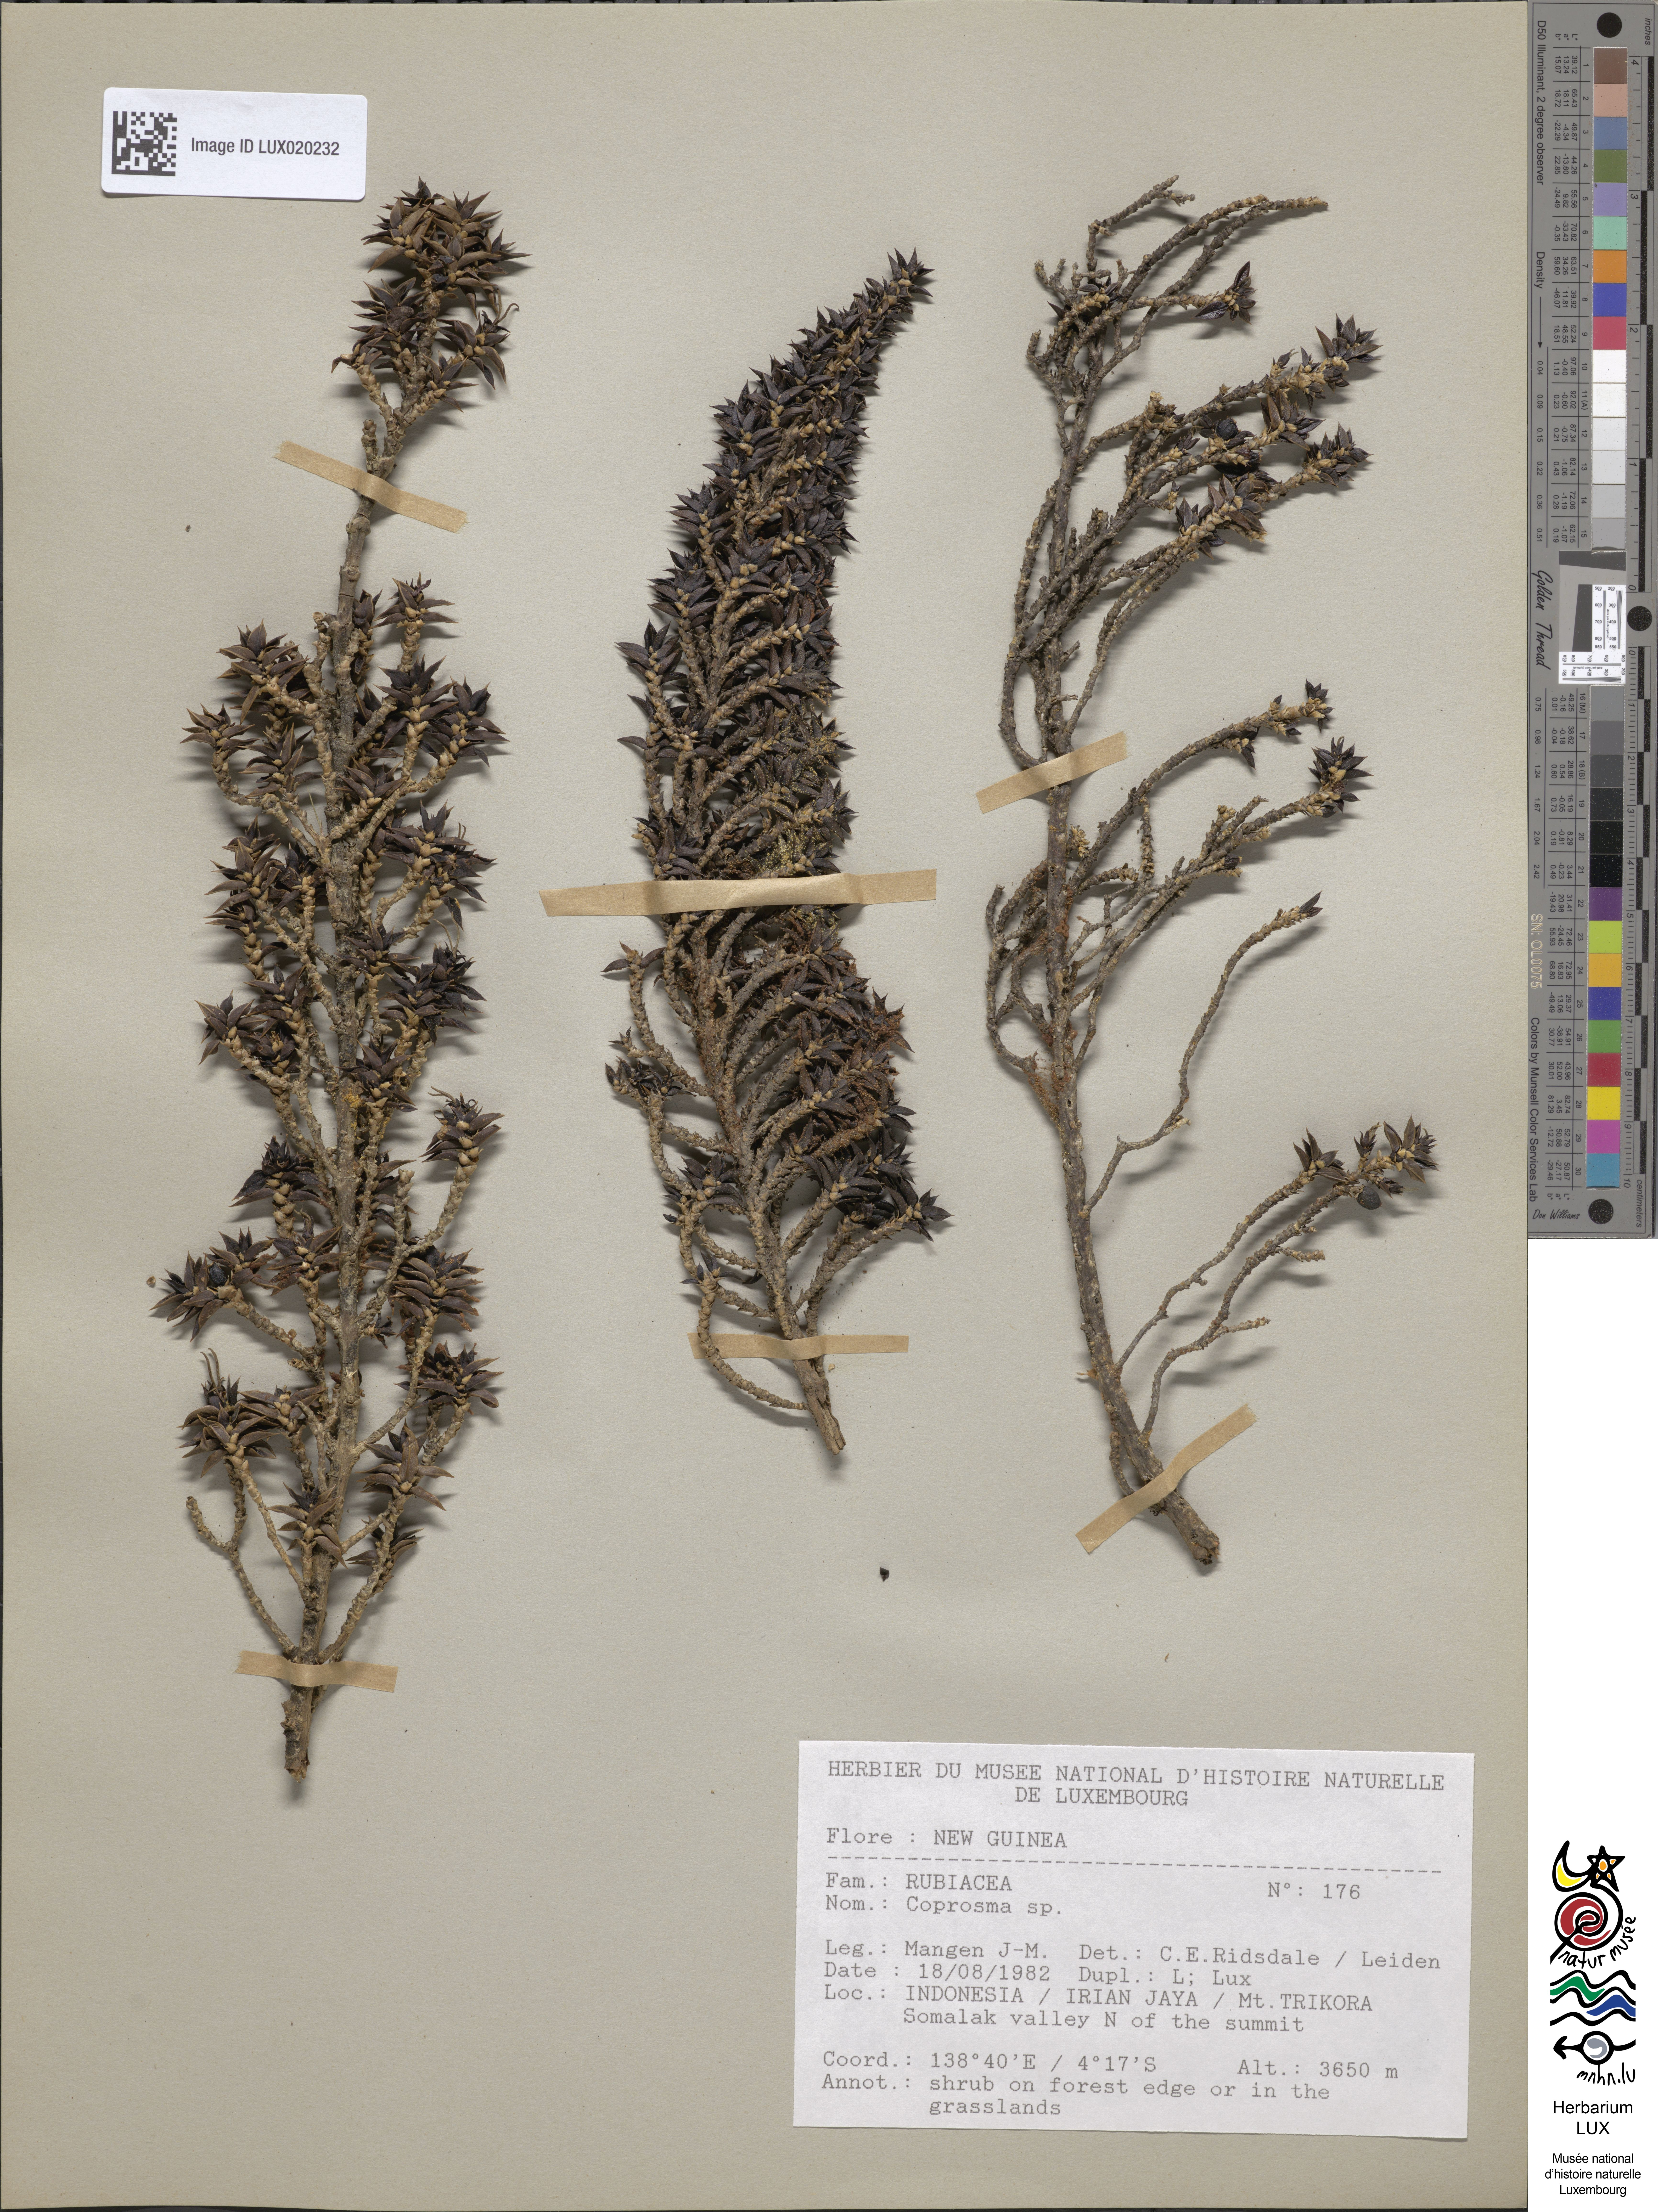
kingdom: Plantae
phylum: Tracheophyta
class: Magnoliopsida
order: Gentianales
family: Rubiaceae
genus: Coprosma
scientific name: Coprosma
